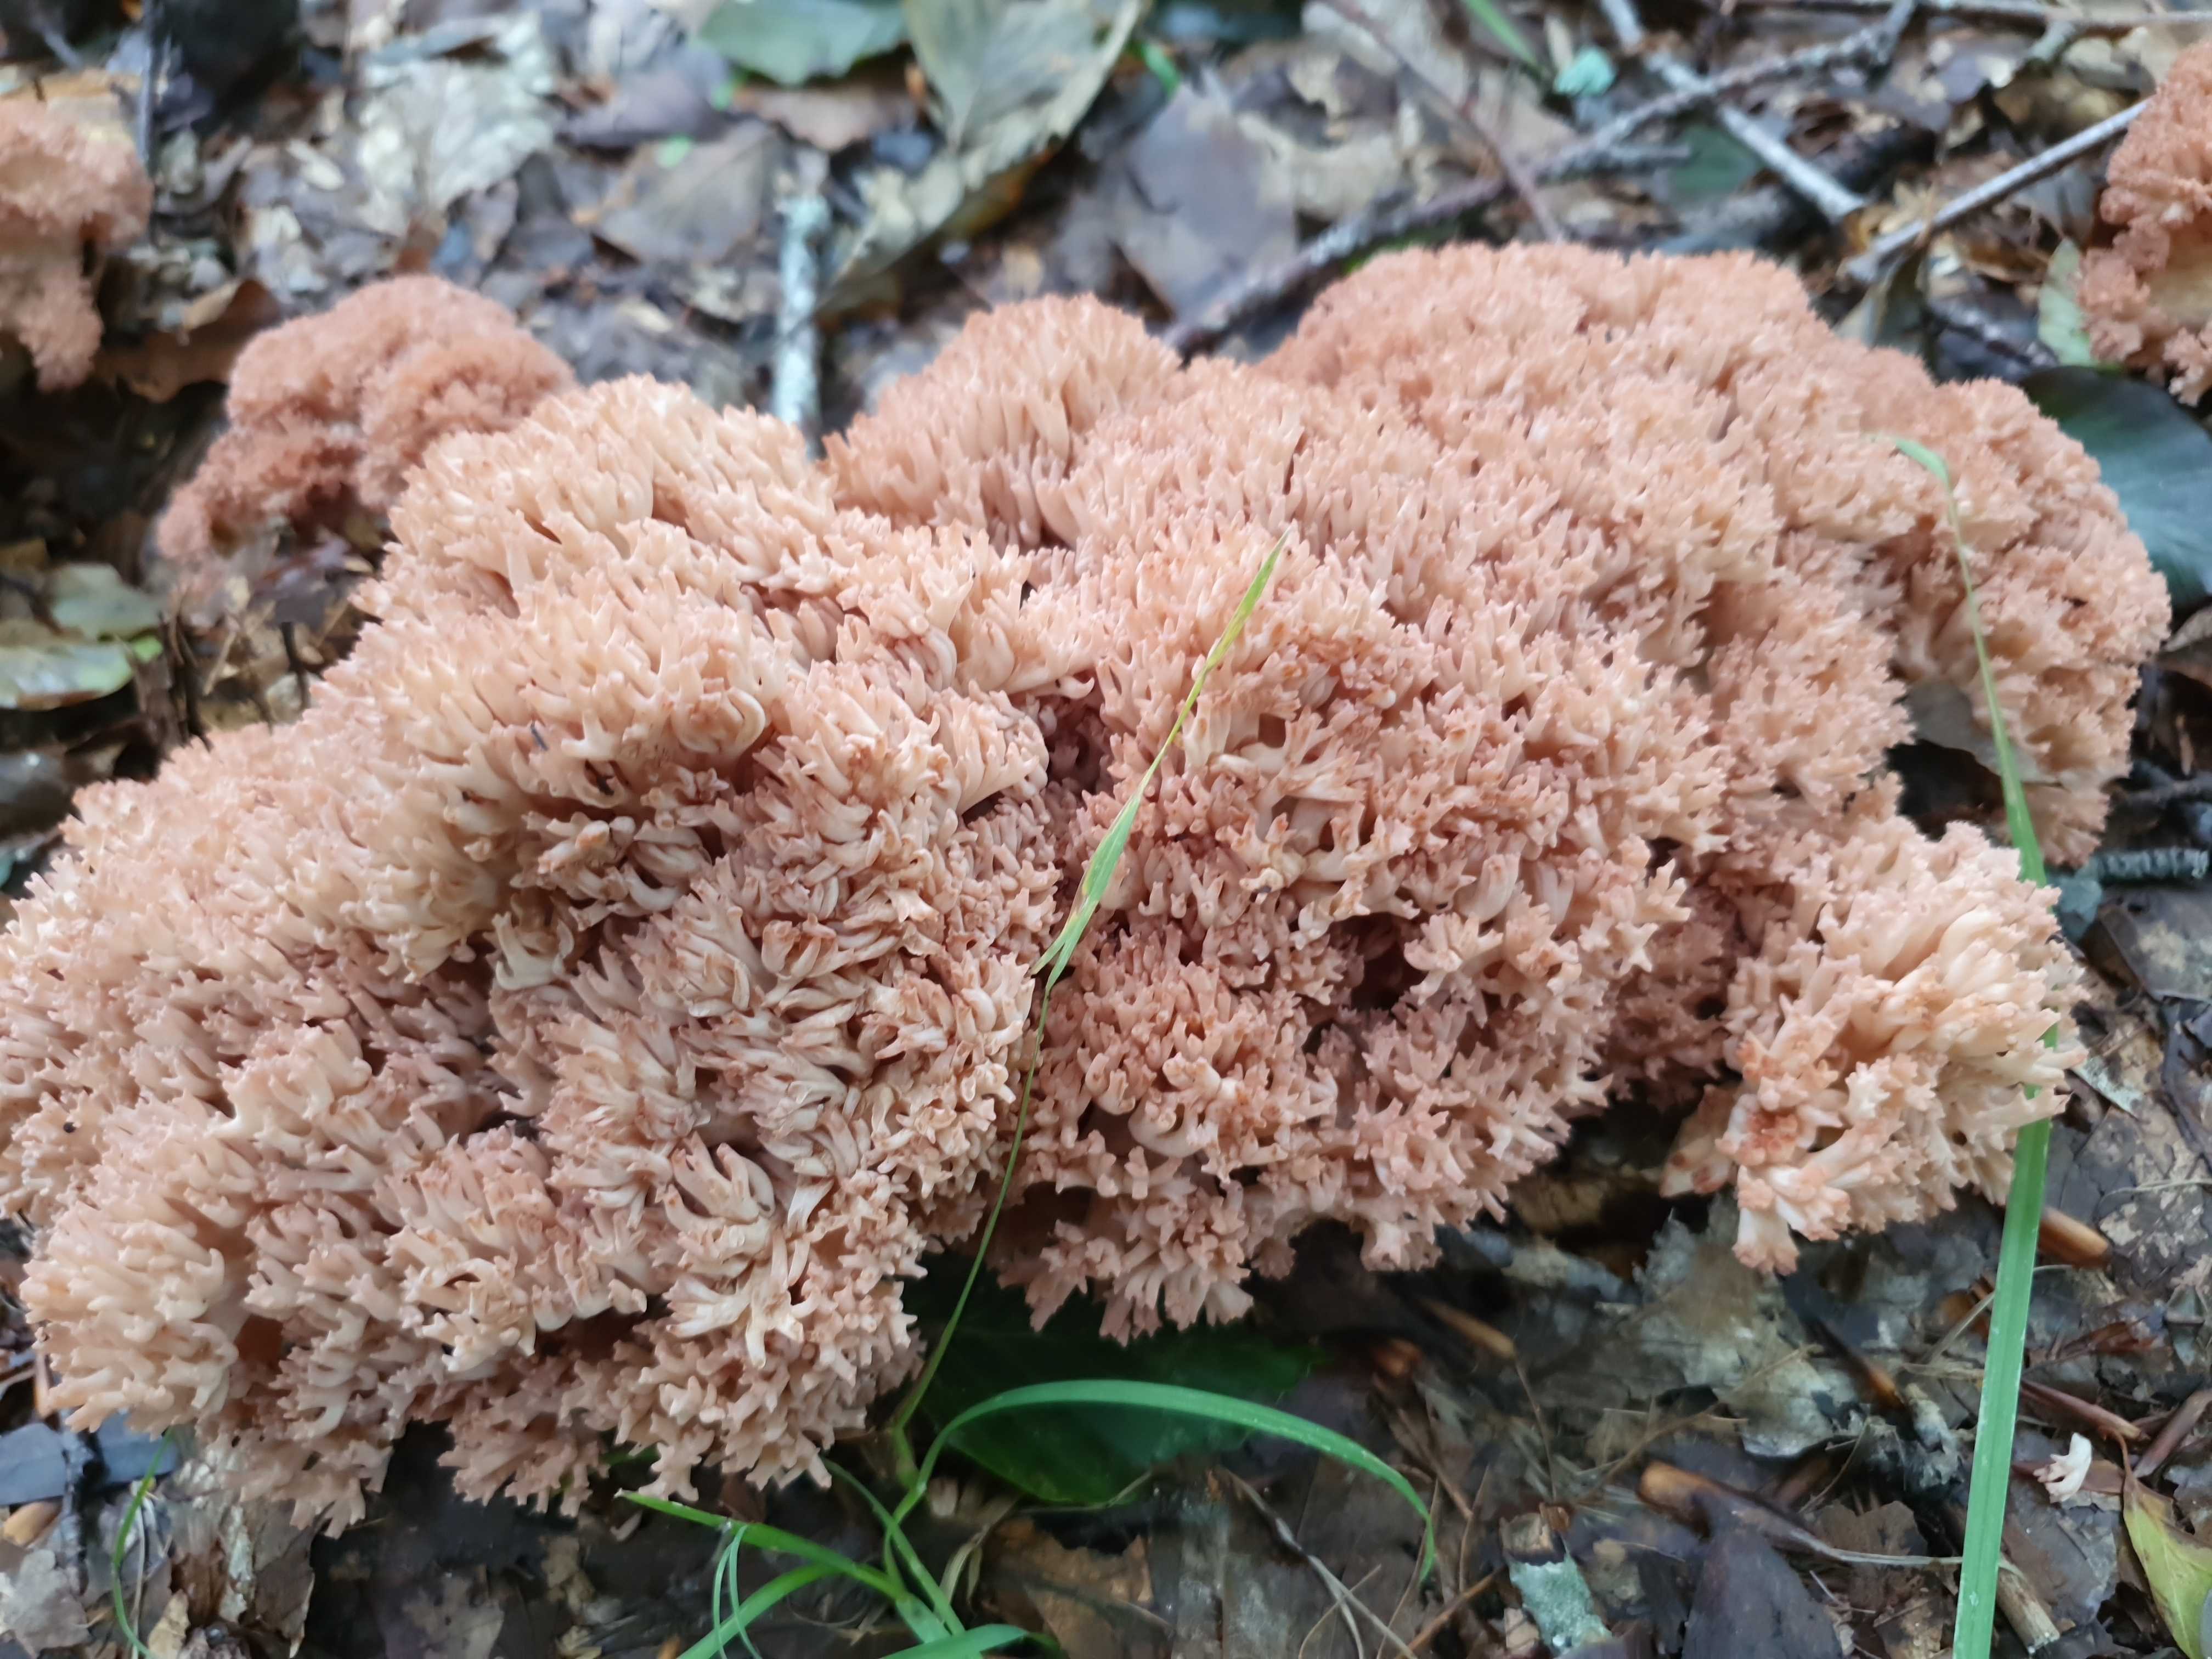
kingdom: Fungi
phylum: Basidiomycota
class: Agaricomycetes
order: Gomphales
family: Gomphaceae
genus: Ramaria
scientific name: Ramaria botrytis
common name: drue-koralsvamp
